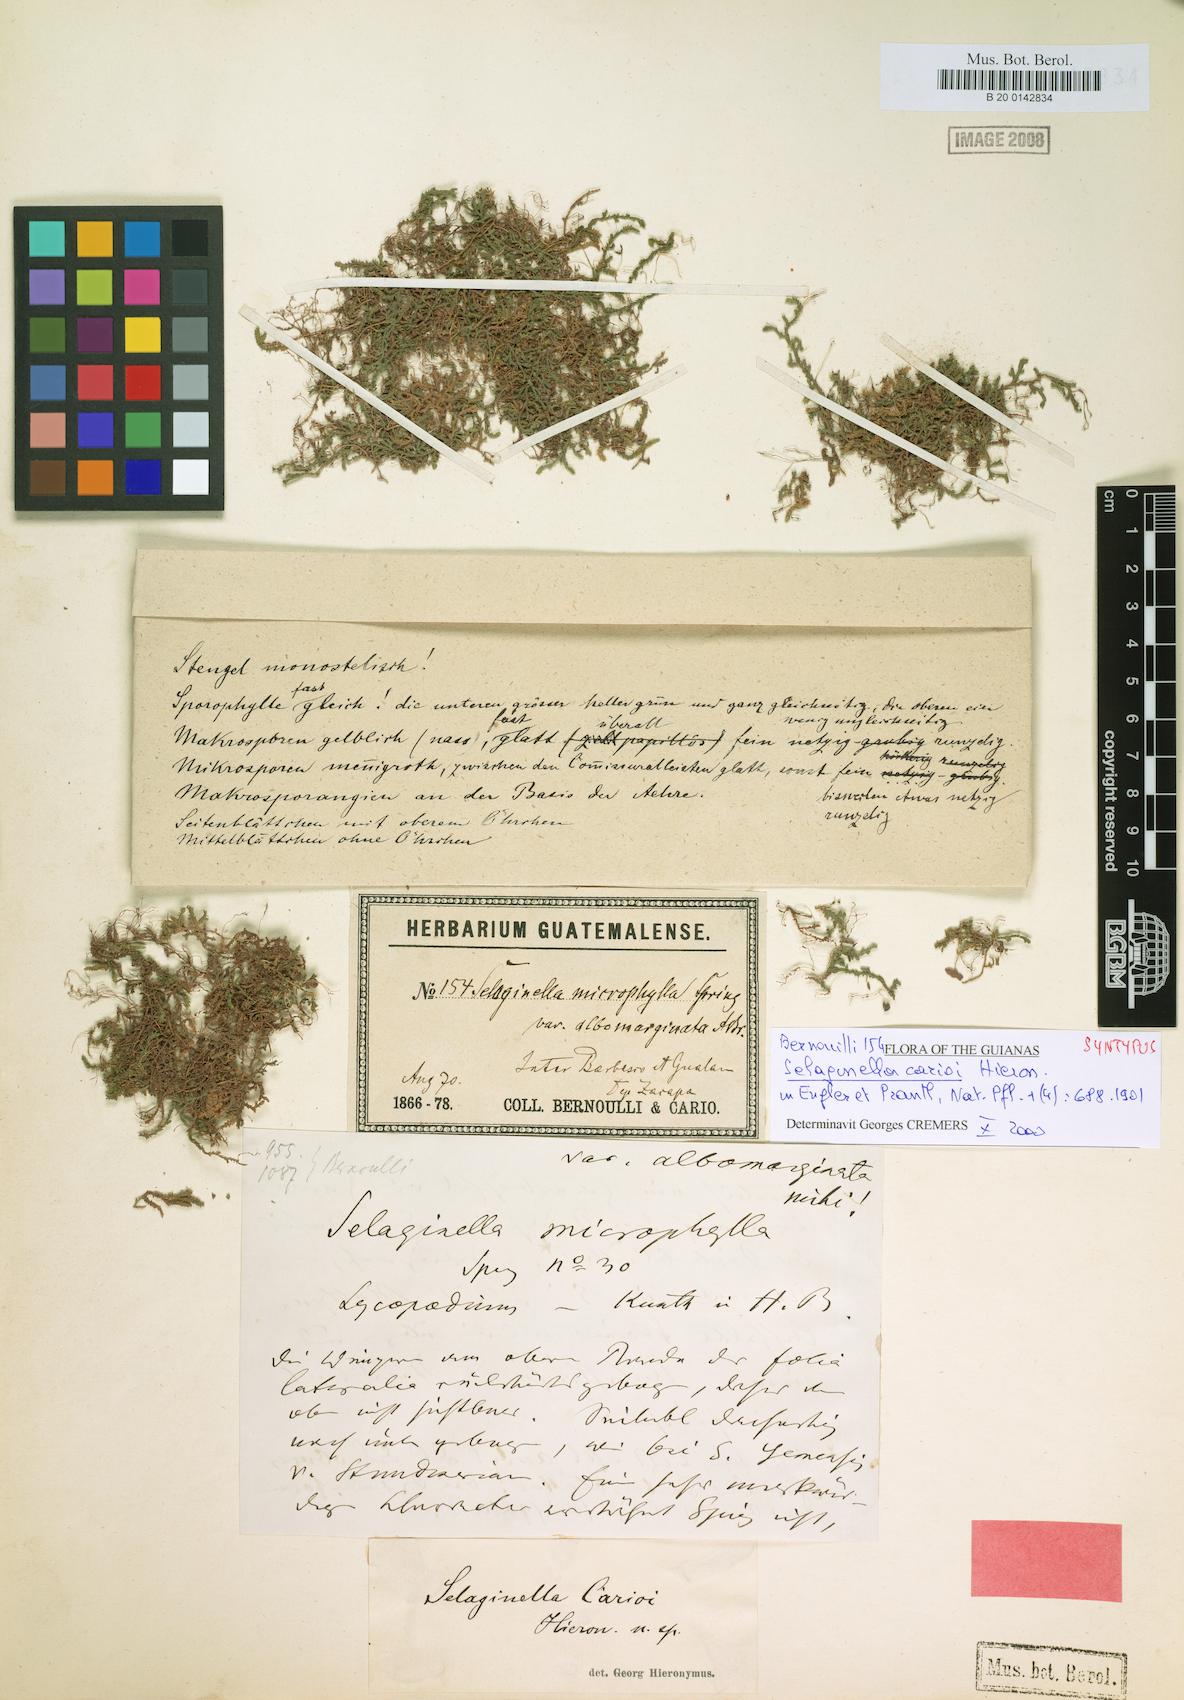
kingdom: Plantae
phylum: Tracheophyta
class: Lycopodiopsida
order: Selaginellales
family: Selaginellaceae
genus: Selaginella
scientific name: Selaginella carioi
